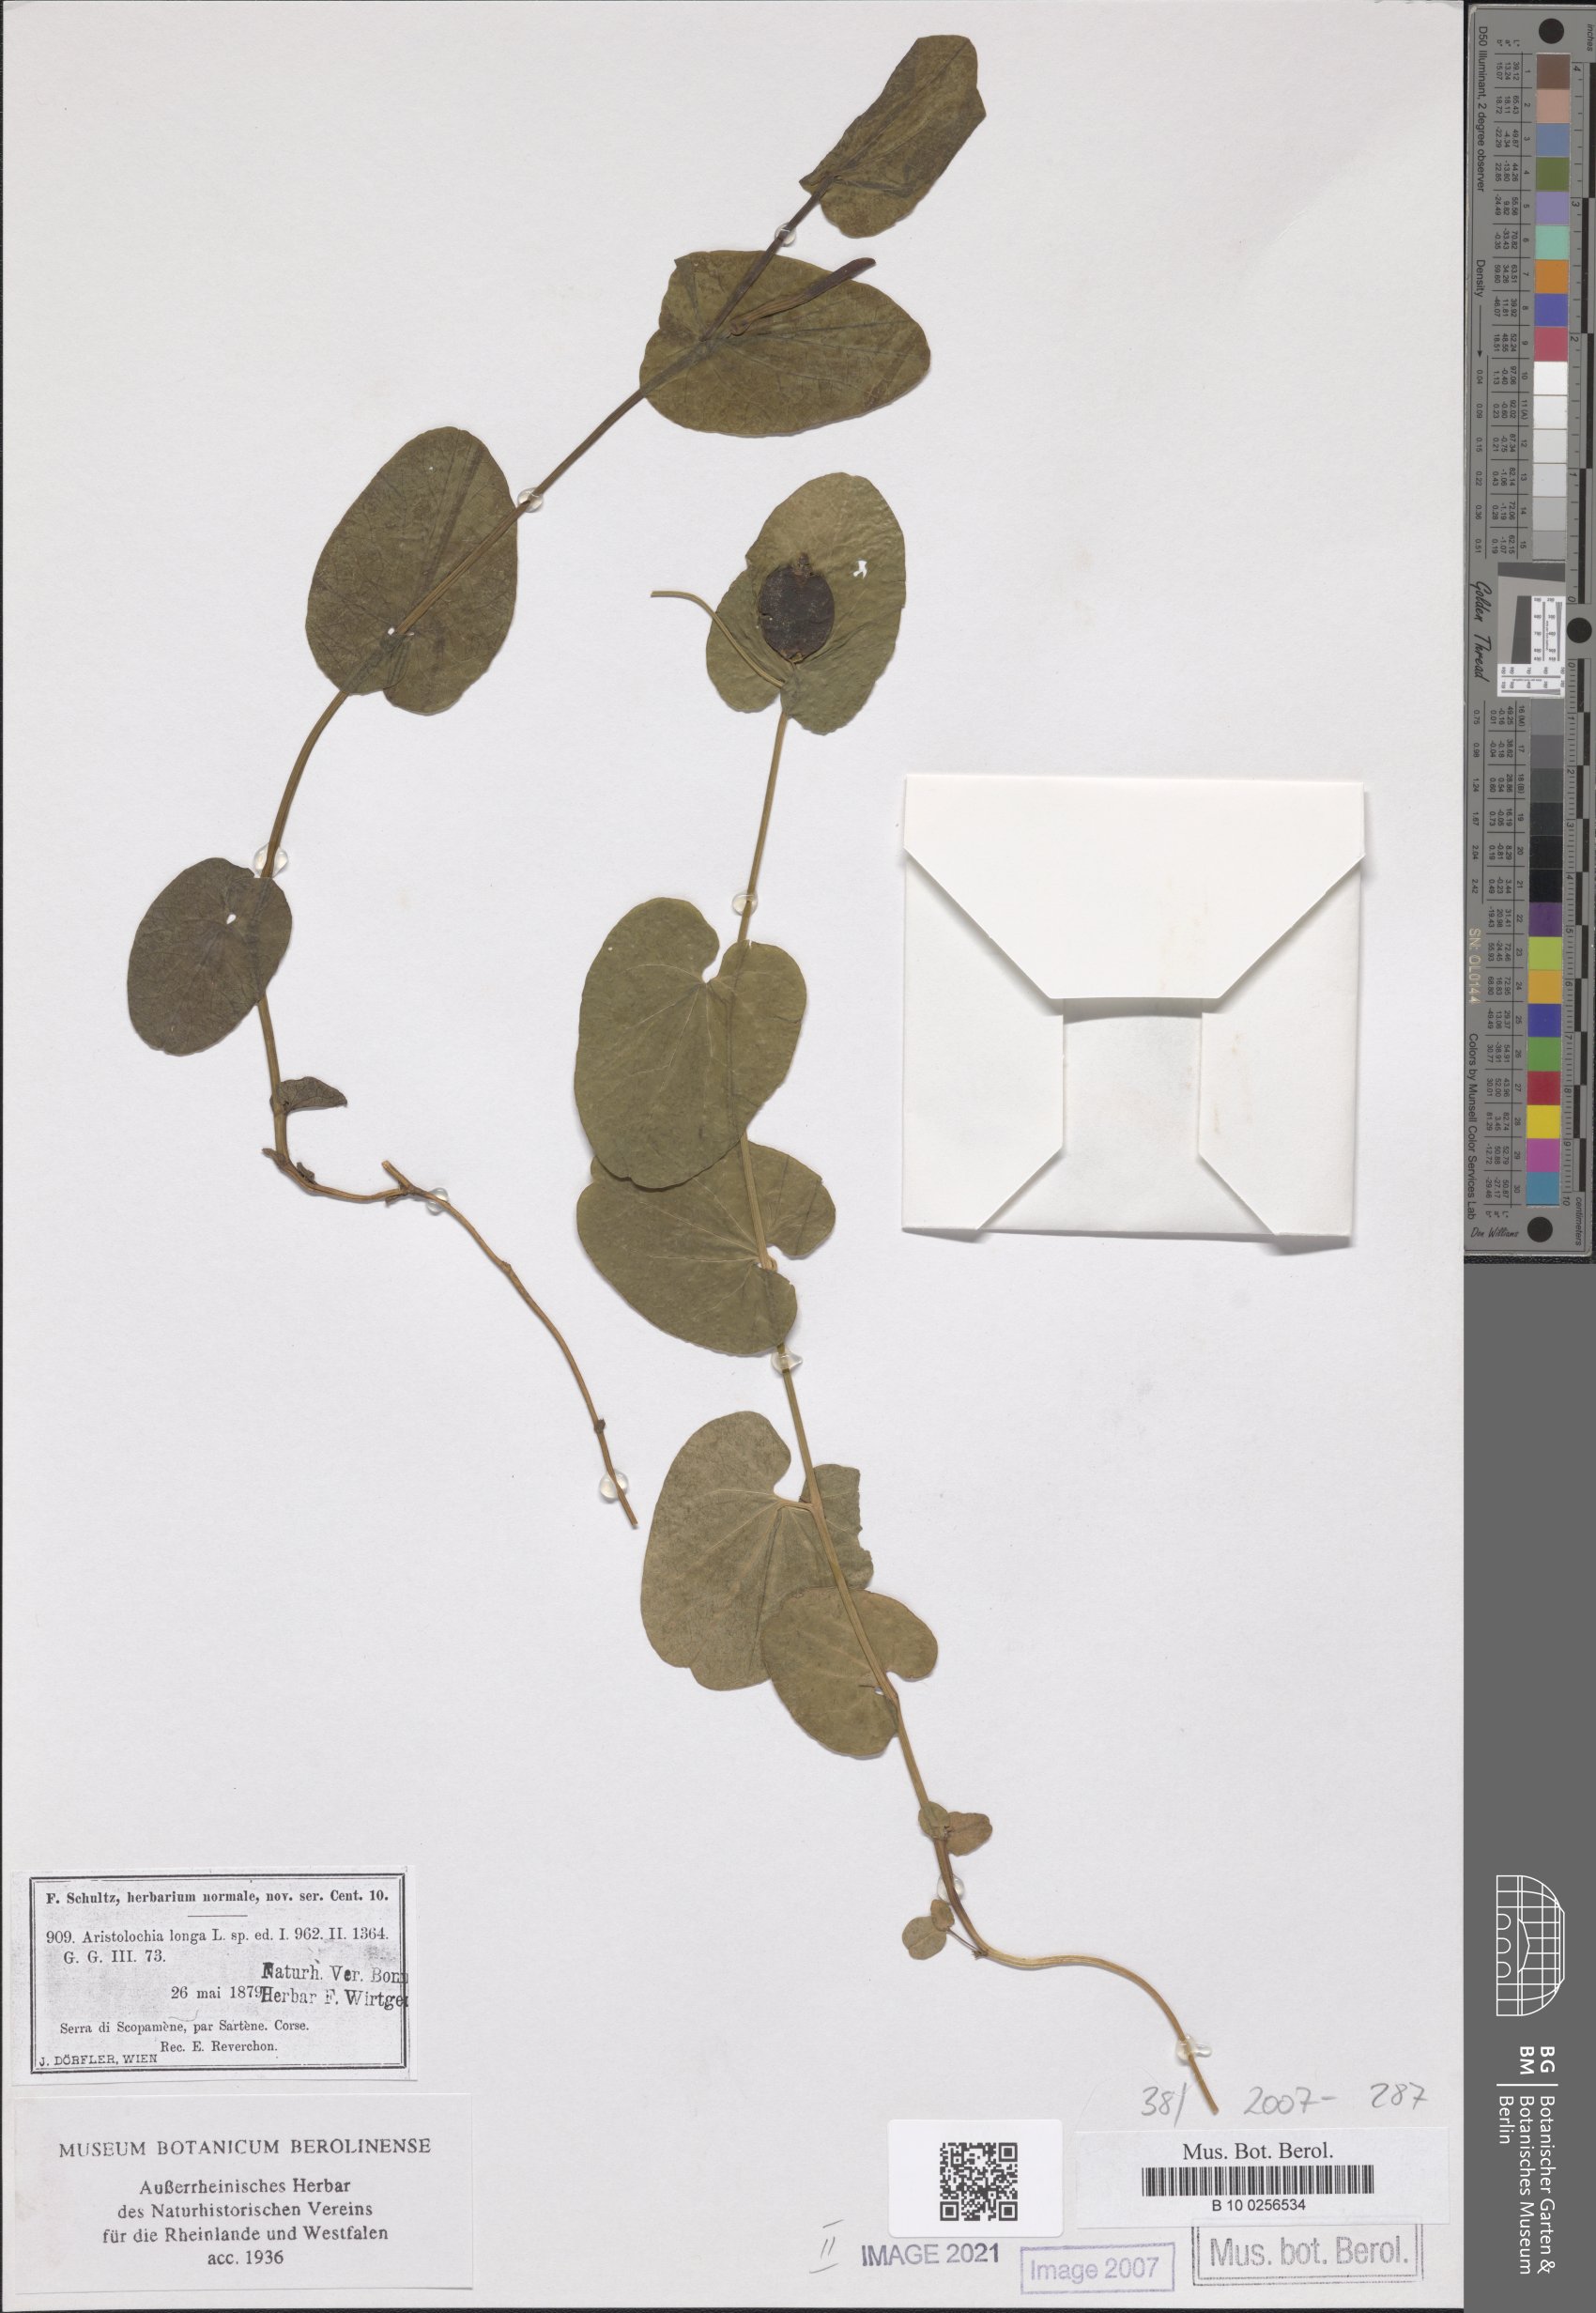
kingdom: Plantae
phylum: Tracheophyta
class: Magnoliopsida
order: Piperales
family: Aristolochiaceae
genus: Aristolochia
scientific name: Aristolochia fontanesii
